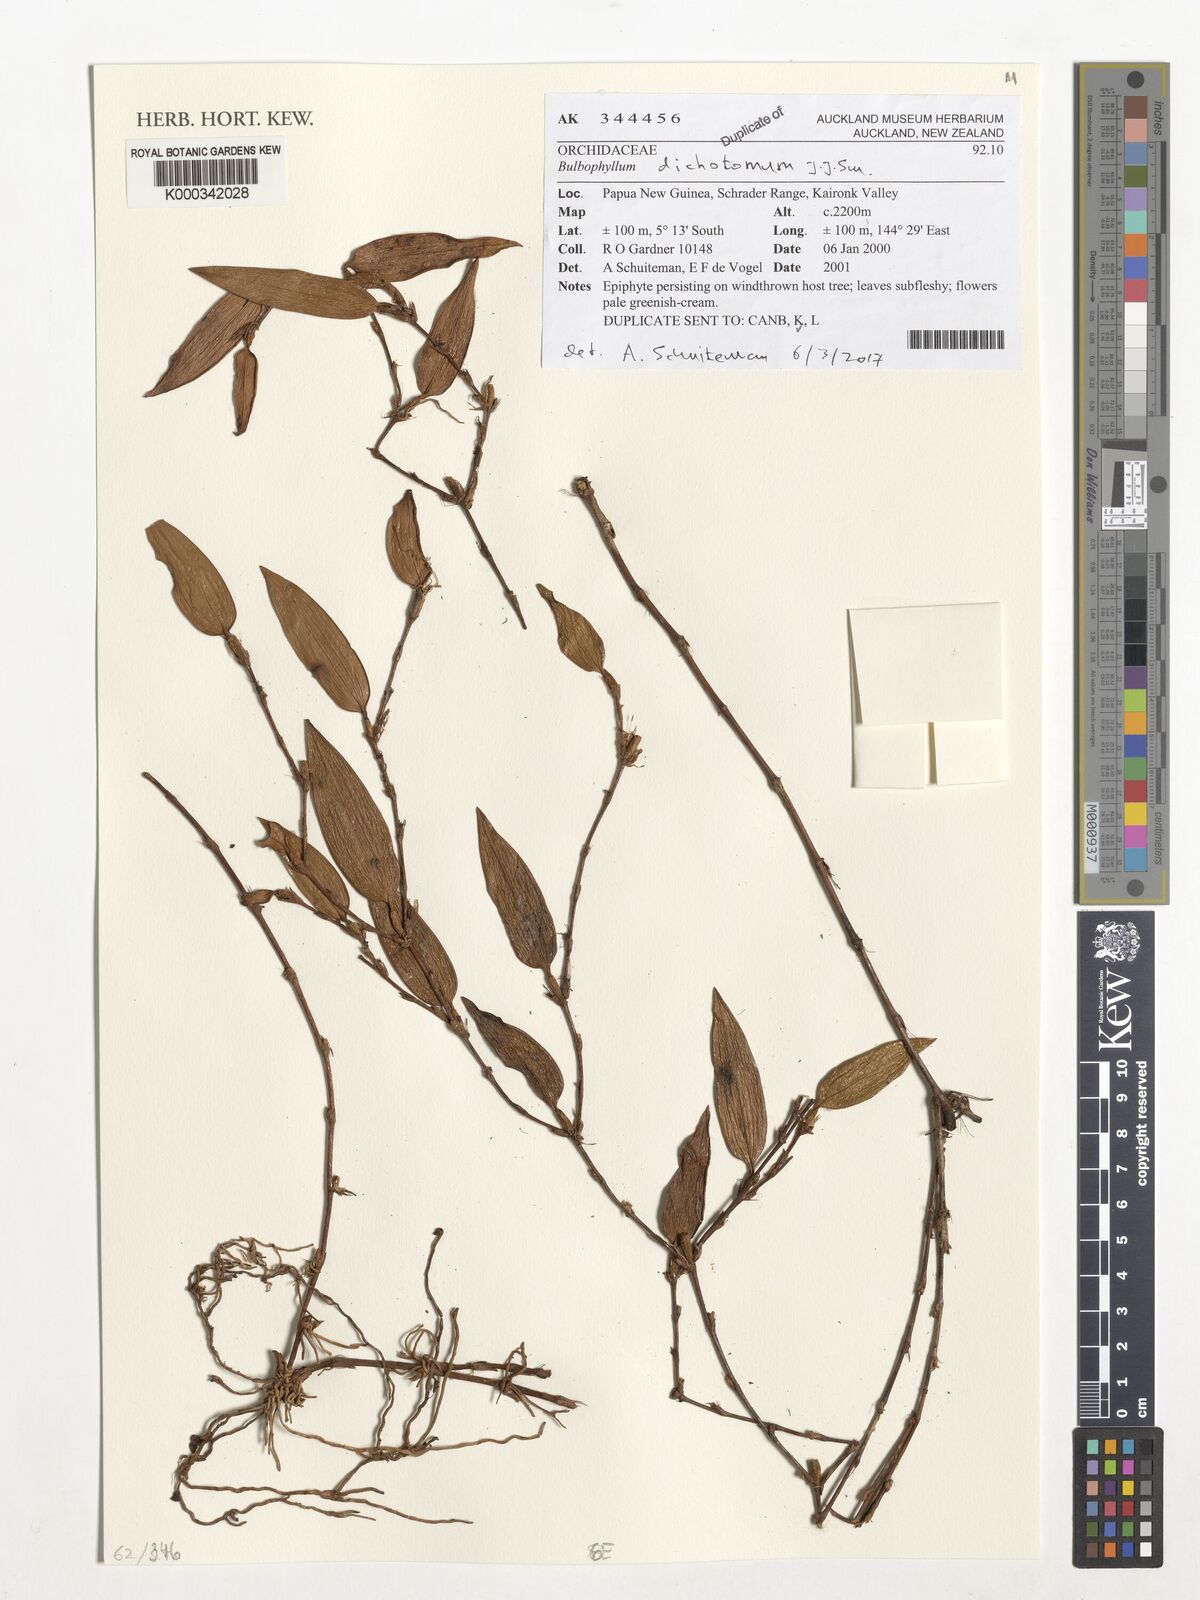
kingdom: Plantae
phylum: Tracheophyta
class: Liliopsida
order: Asparagales
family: Orchidaceae
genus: Bulbophyllum
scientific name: Bulbophyllum dichotomum
